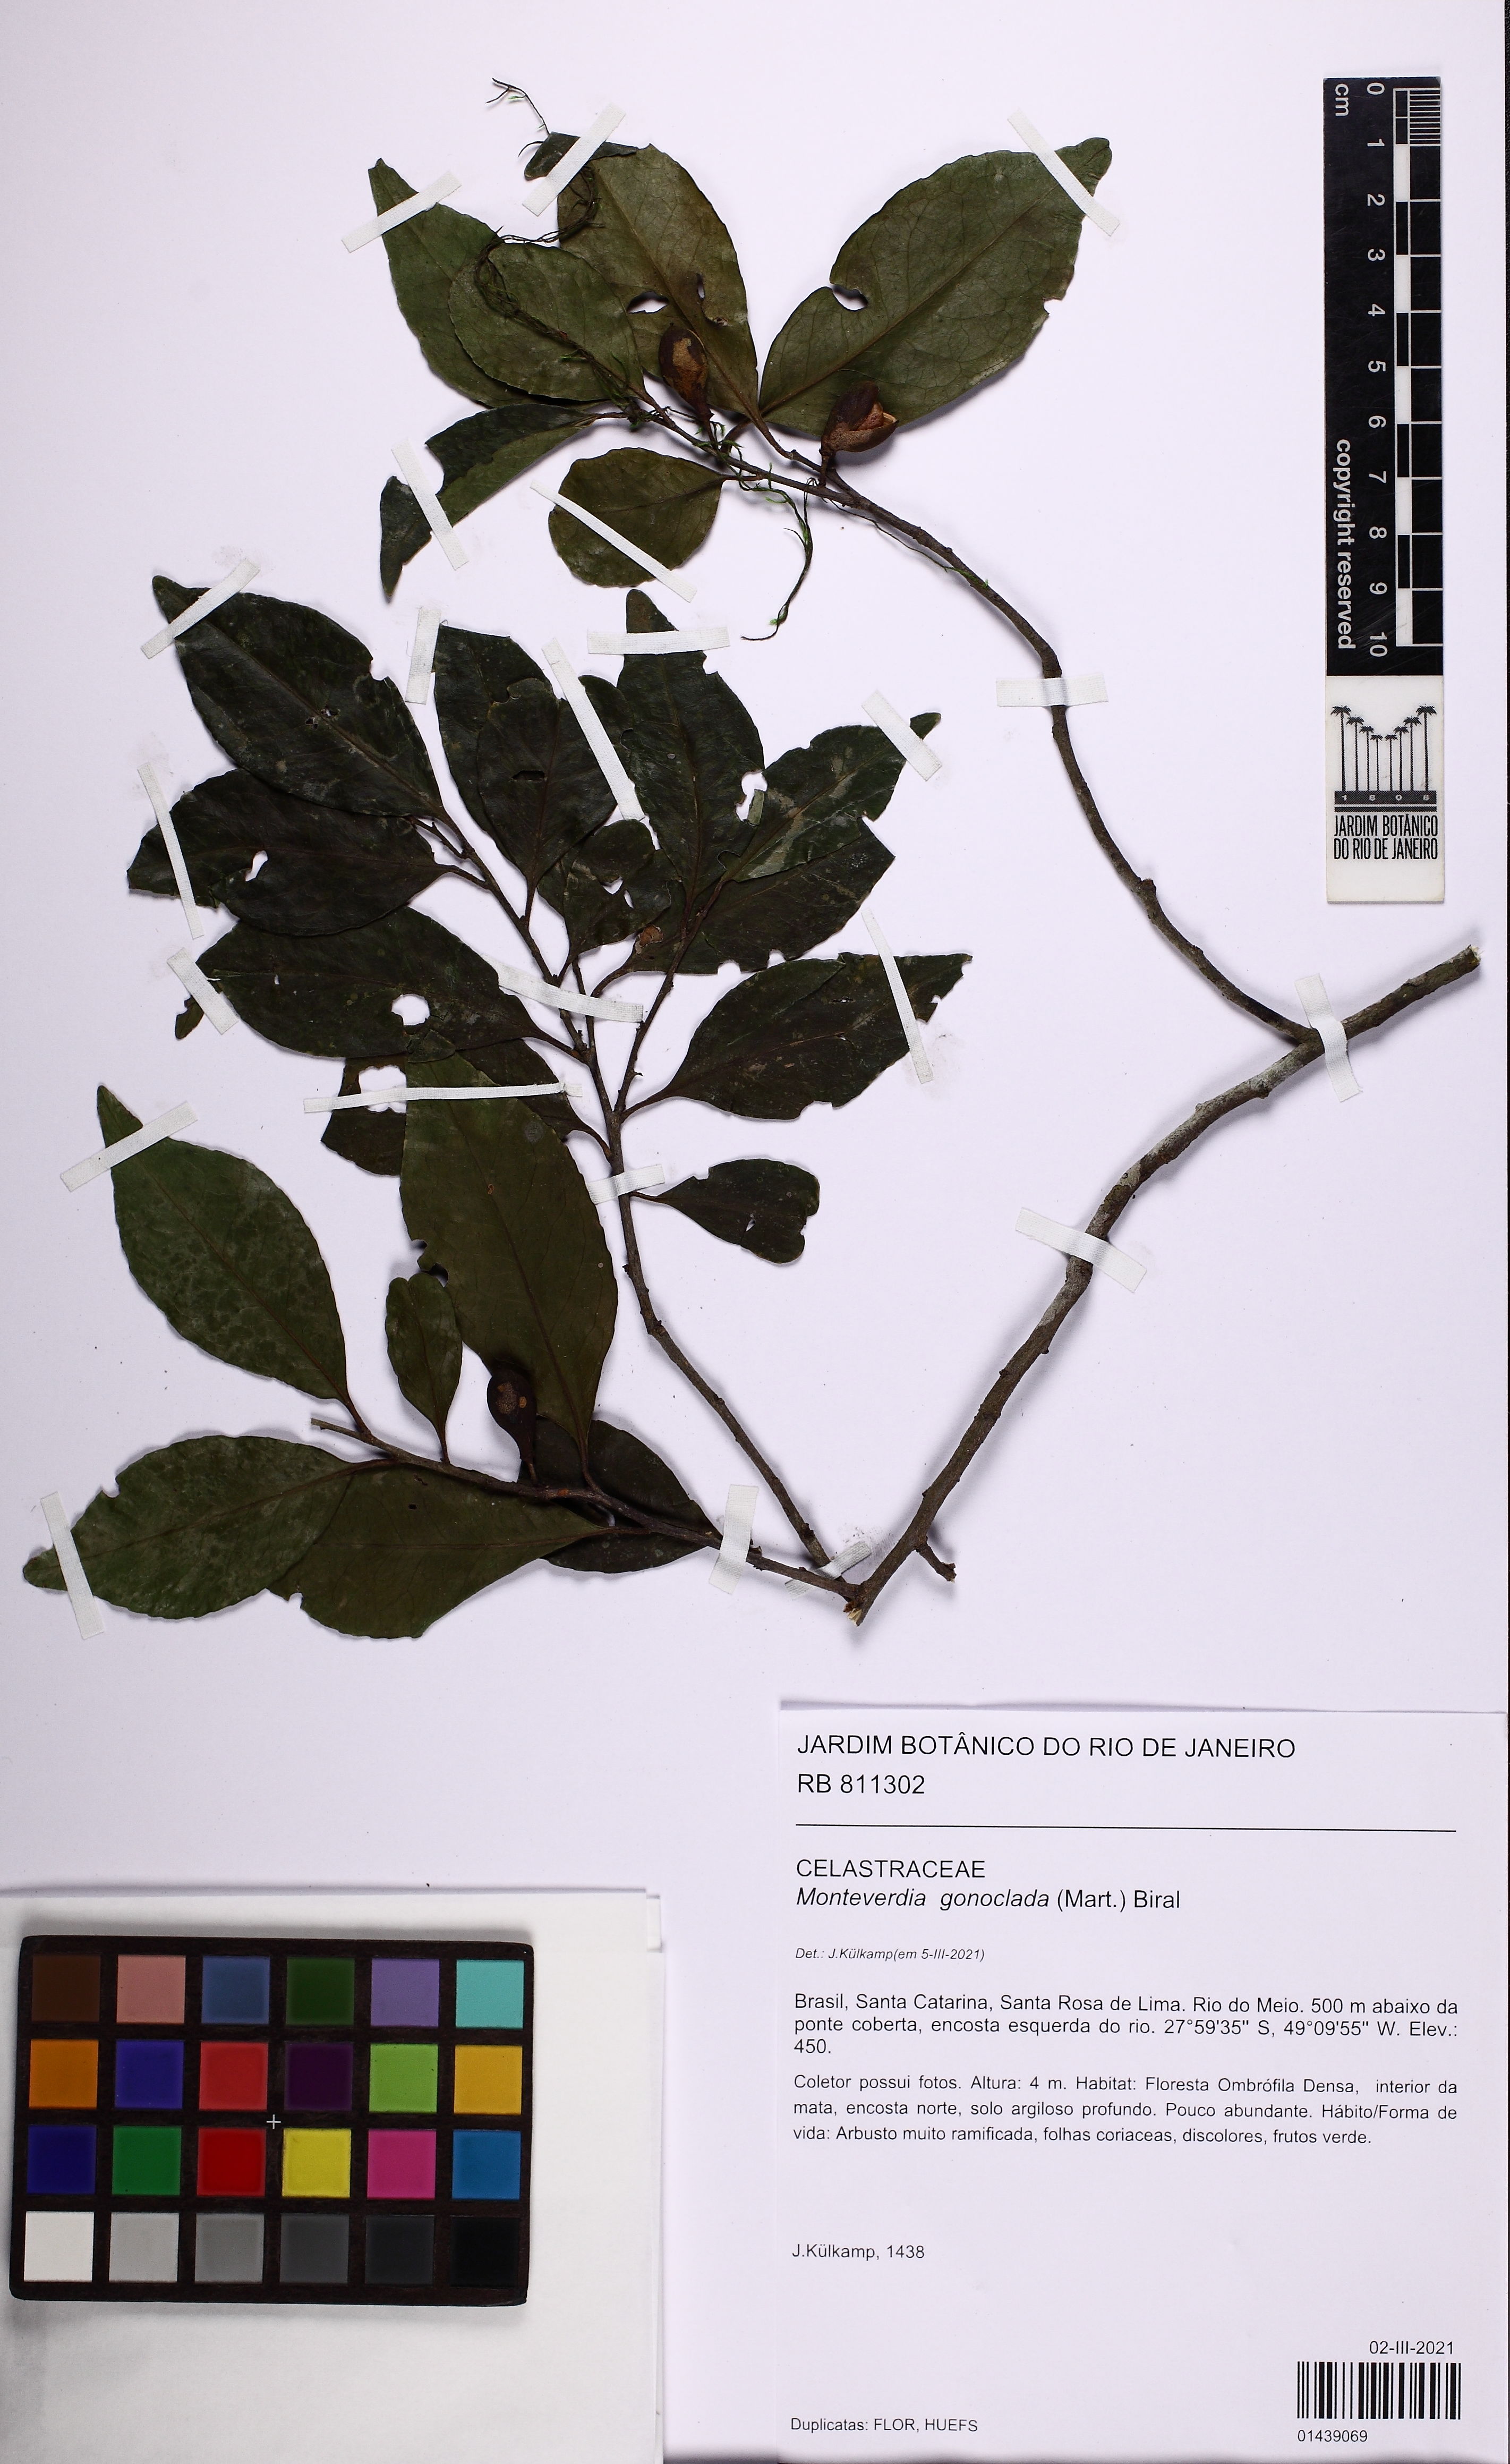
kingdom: Plantae
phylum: Tracheophyta
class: Magnoliopsida
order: Celastrales
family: Celastraceae
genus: Monteverdia
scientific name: Monteverdia gonoclada
